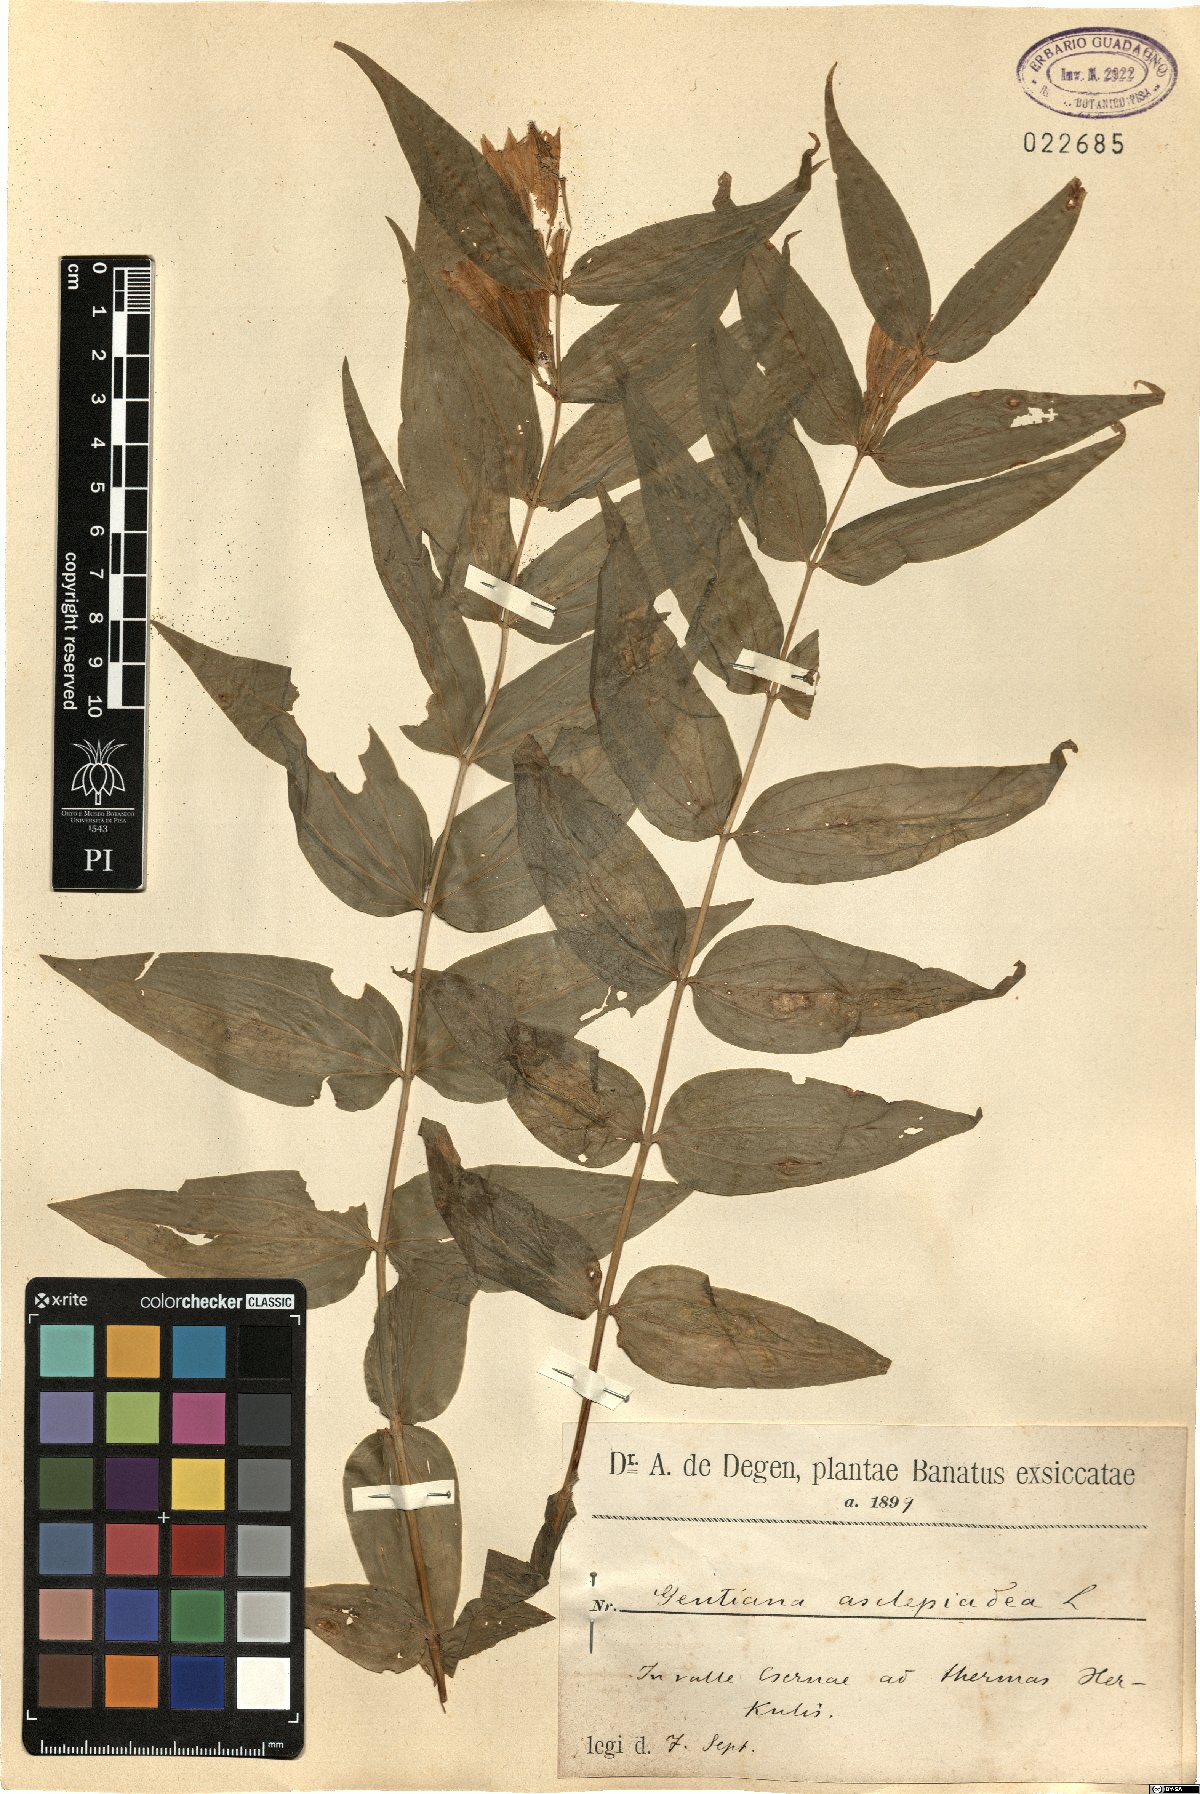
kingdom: Plantae
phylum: Tracheophyta
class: Magnoliopsida
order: Gentianales
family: Gentianaceae
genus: Gentiana
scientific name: Gentiana asclepiadea
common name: Willow gentian
